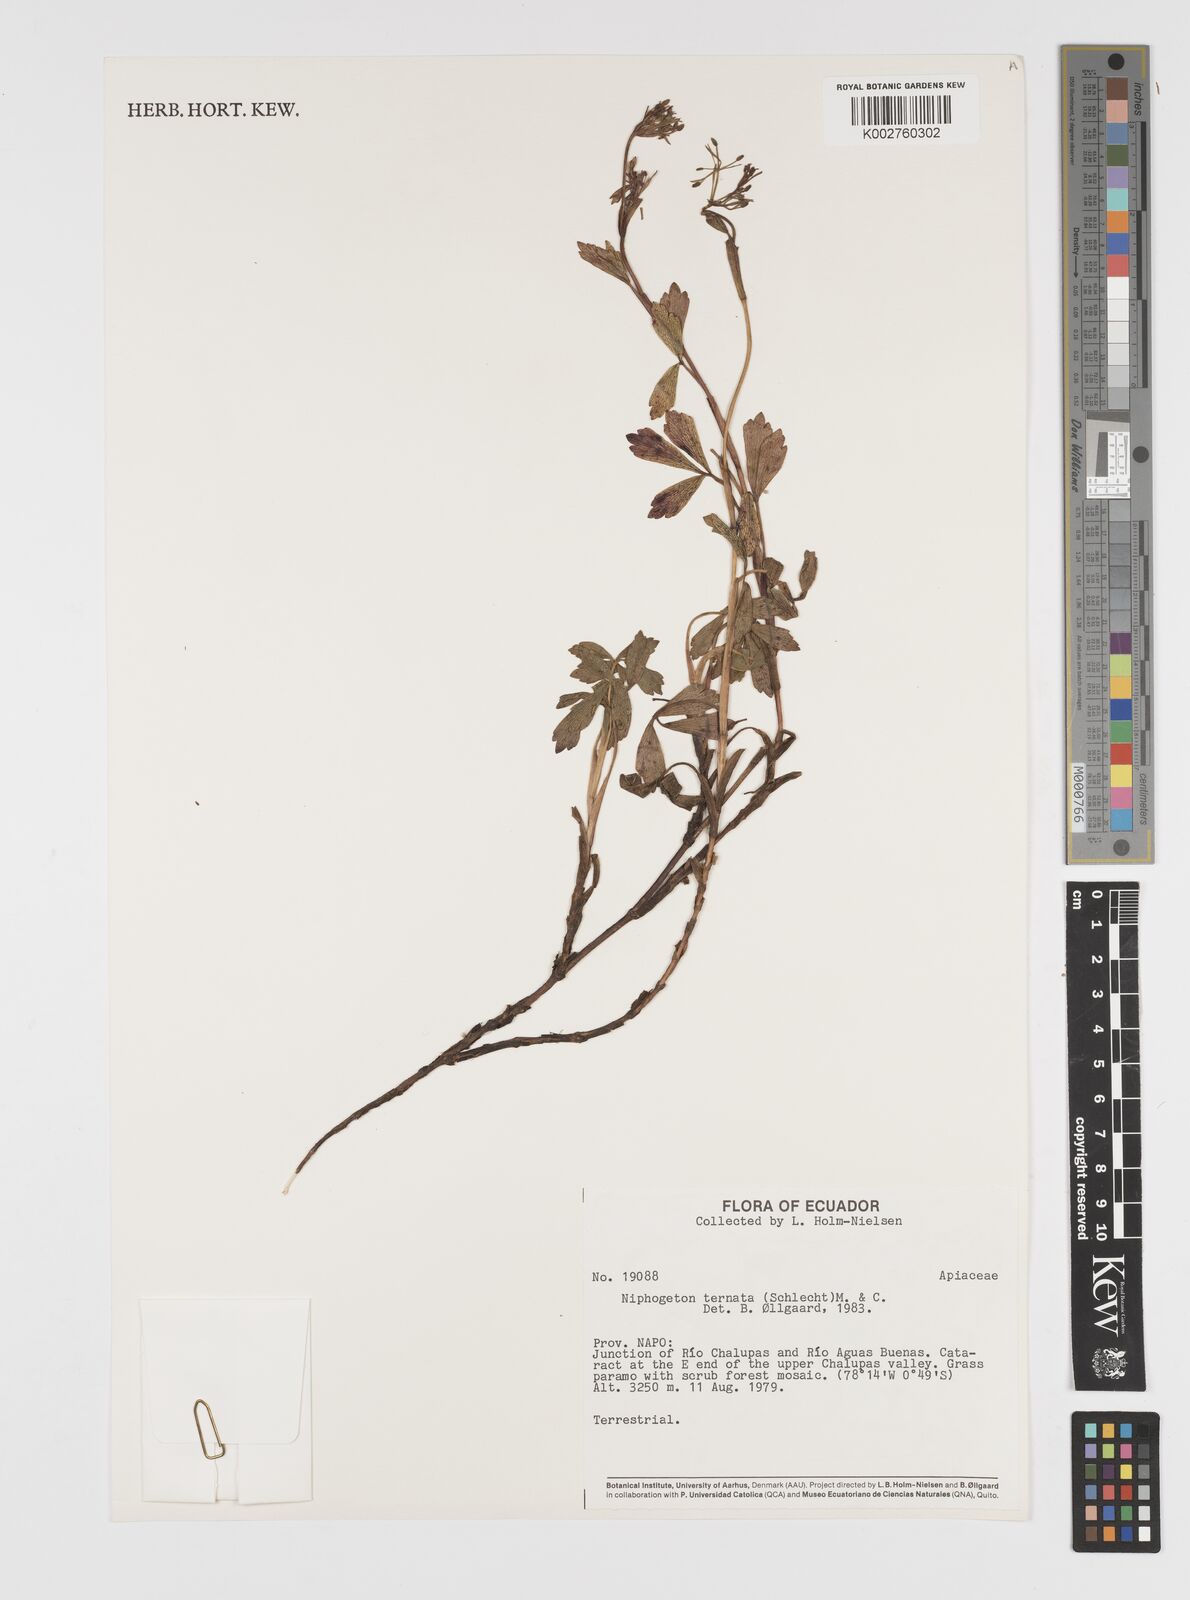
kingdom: Plantae
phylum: Tracheophyta
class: Magnoliopsida
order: Apiales
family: Apiaceae
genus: Niphogeton
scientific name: Niphogeton ternata
